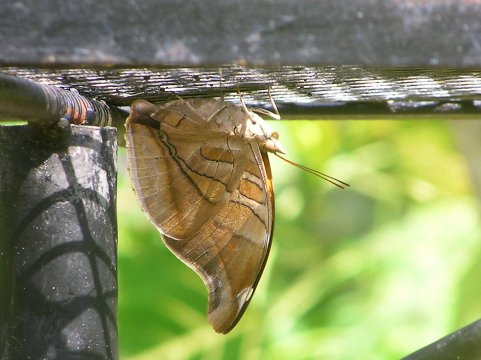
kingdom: Animalia
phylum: Arthropoda
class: Insecta
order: Lepidoptera
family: Nymphalidae
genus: Historis
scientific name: Historis odius
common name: Orion Cecropian
